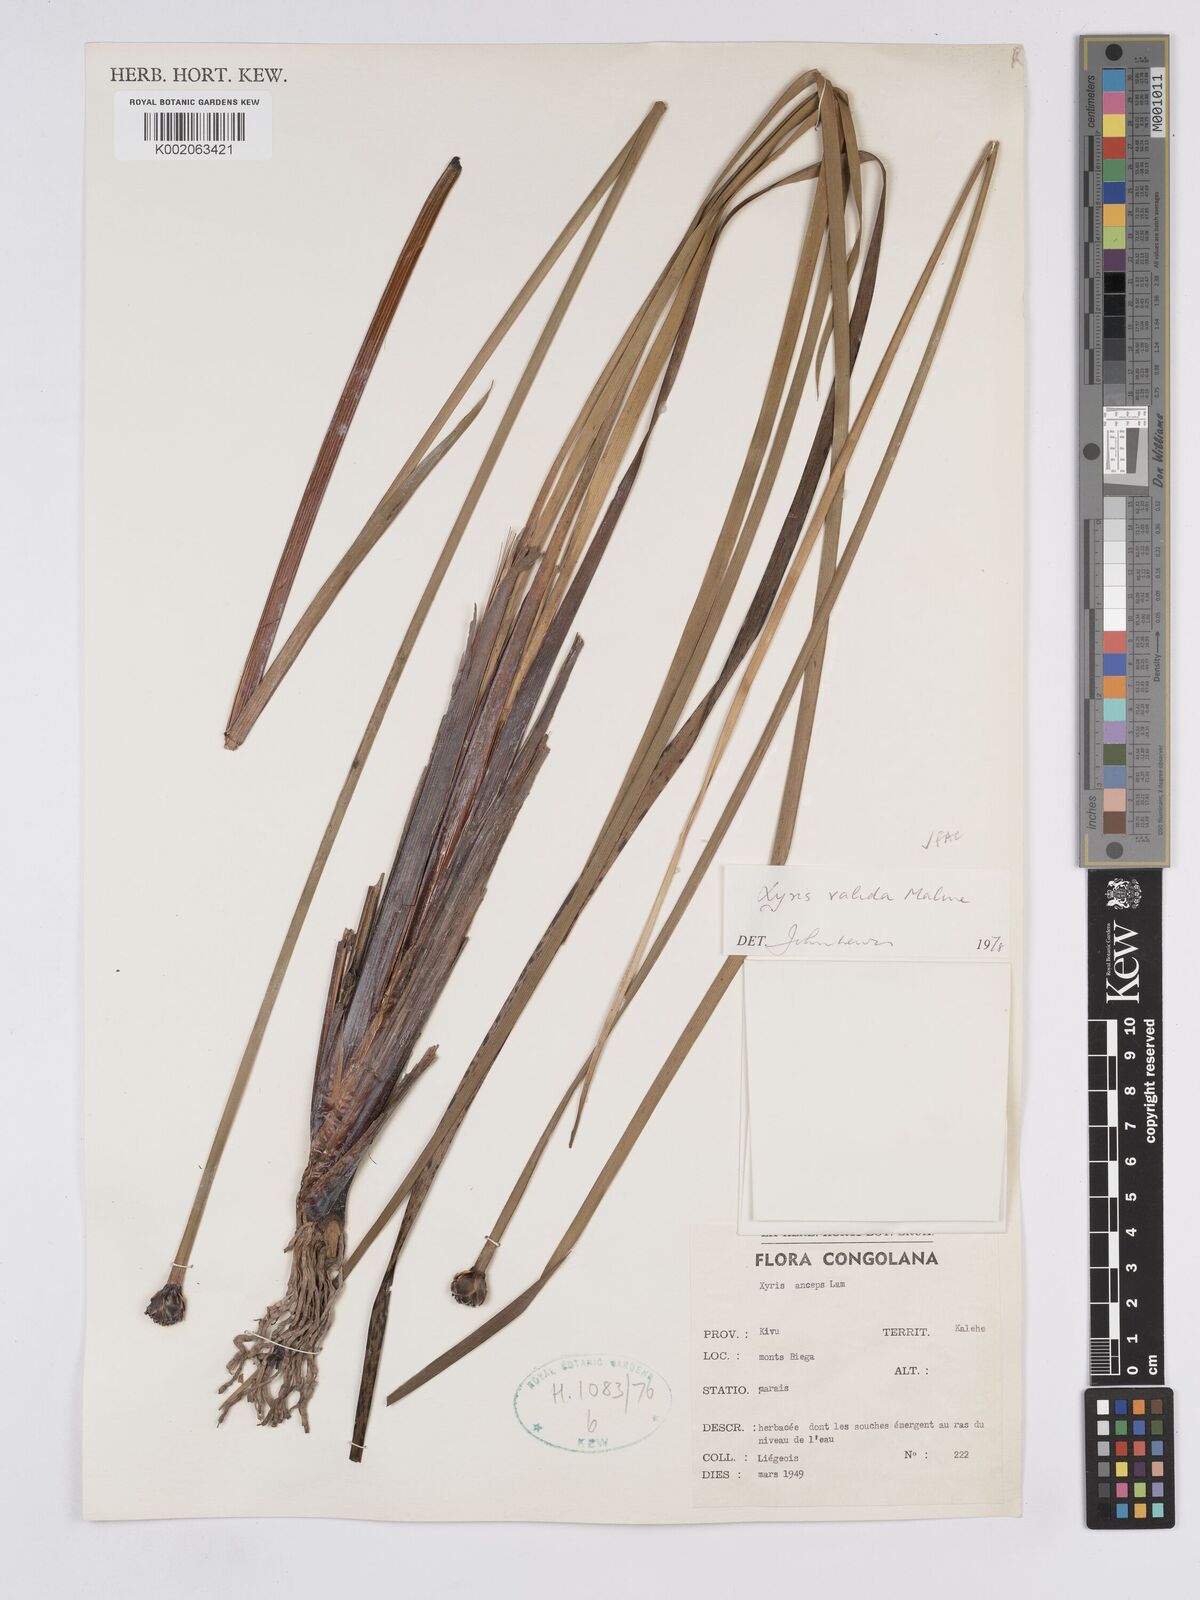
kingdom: Plantae
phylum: Tracheophyta
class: Liliopsida
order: Poales
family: Xyridaceae
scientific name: Xyridaceae
